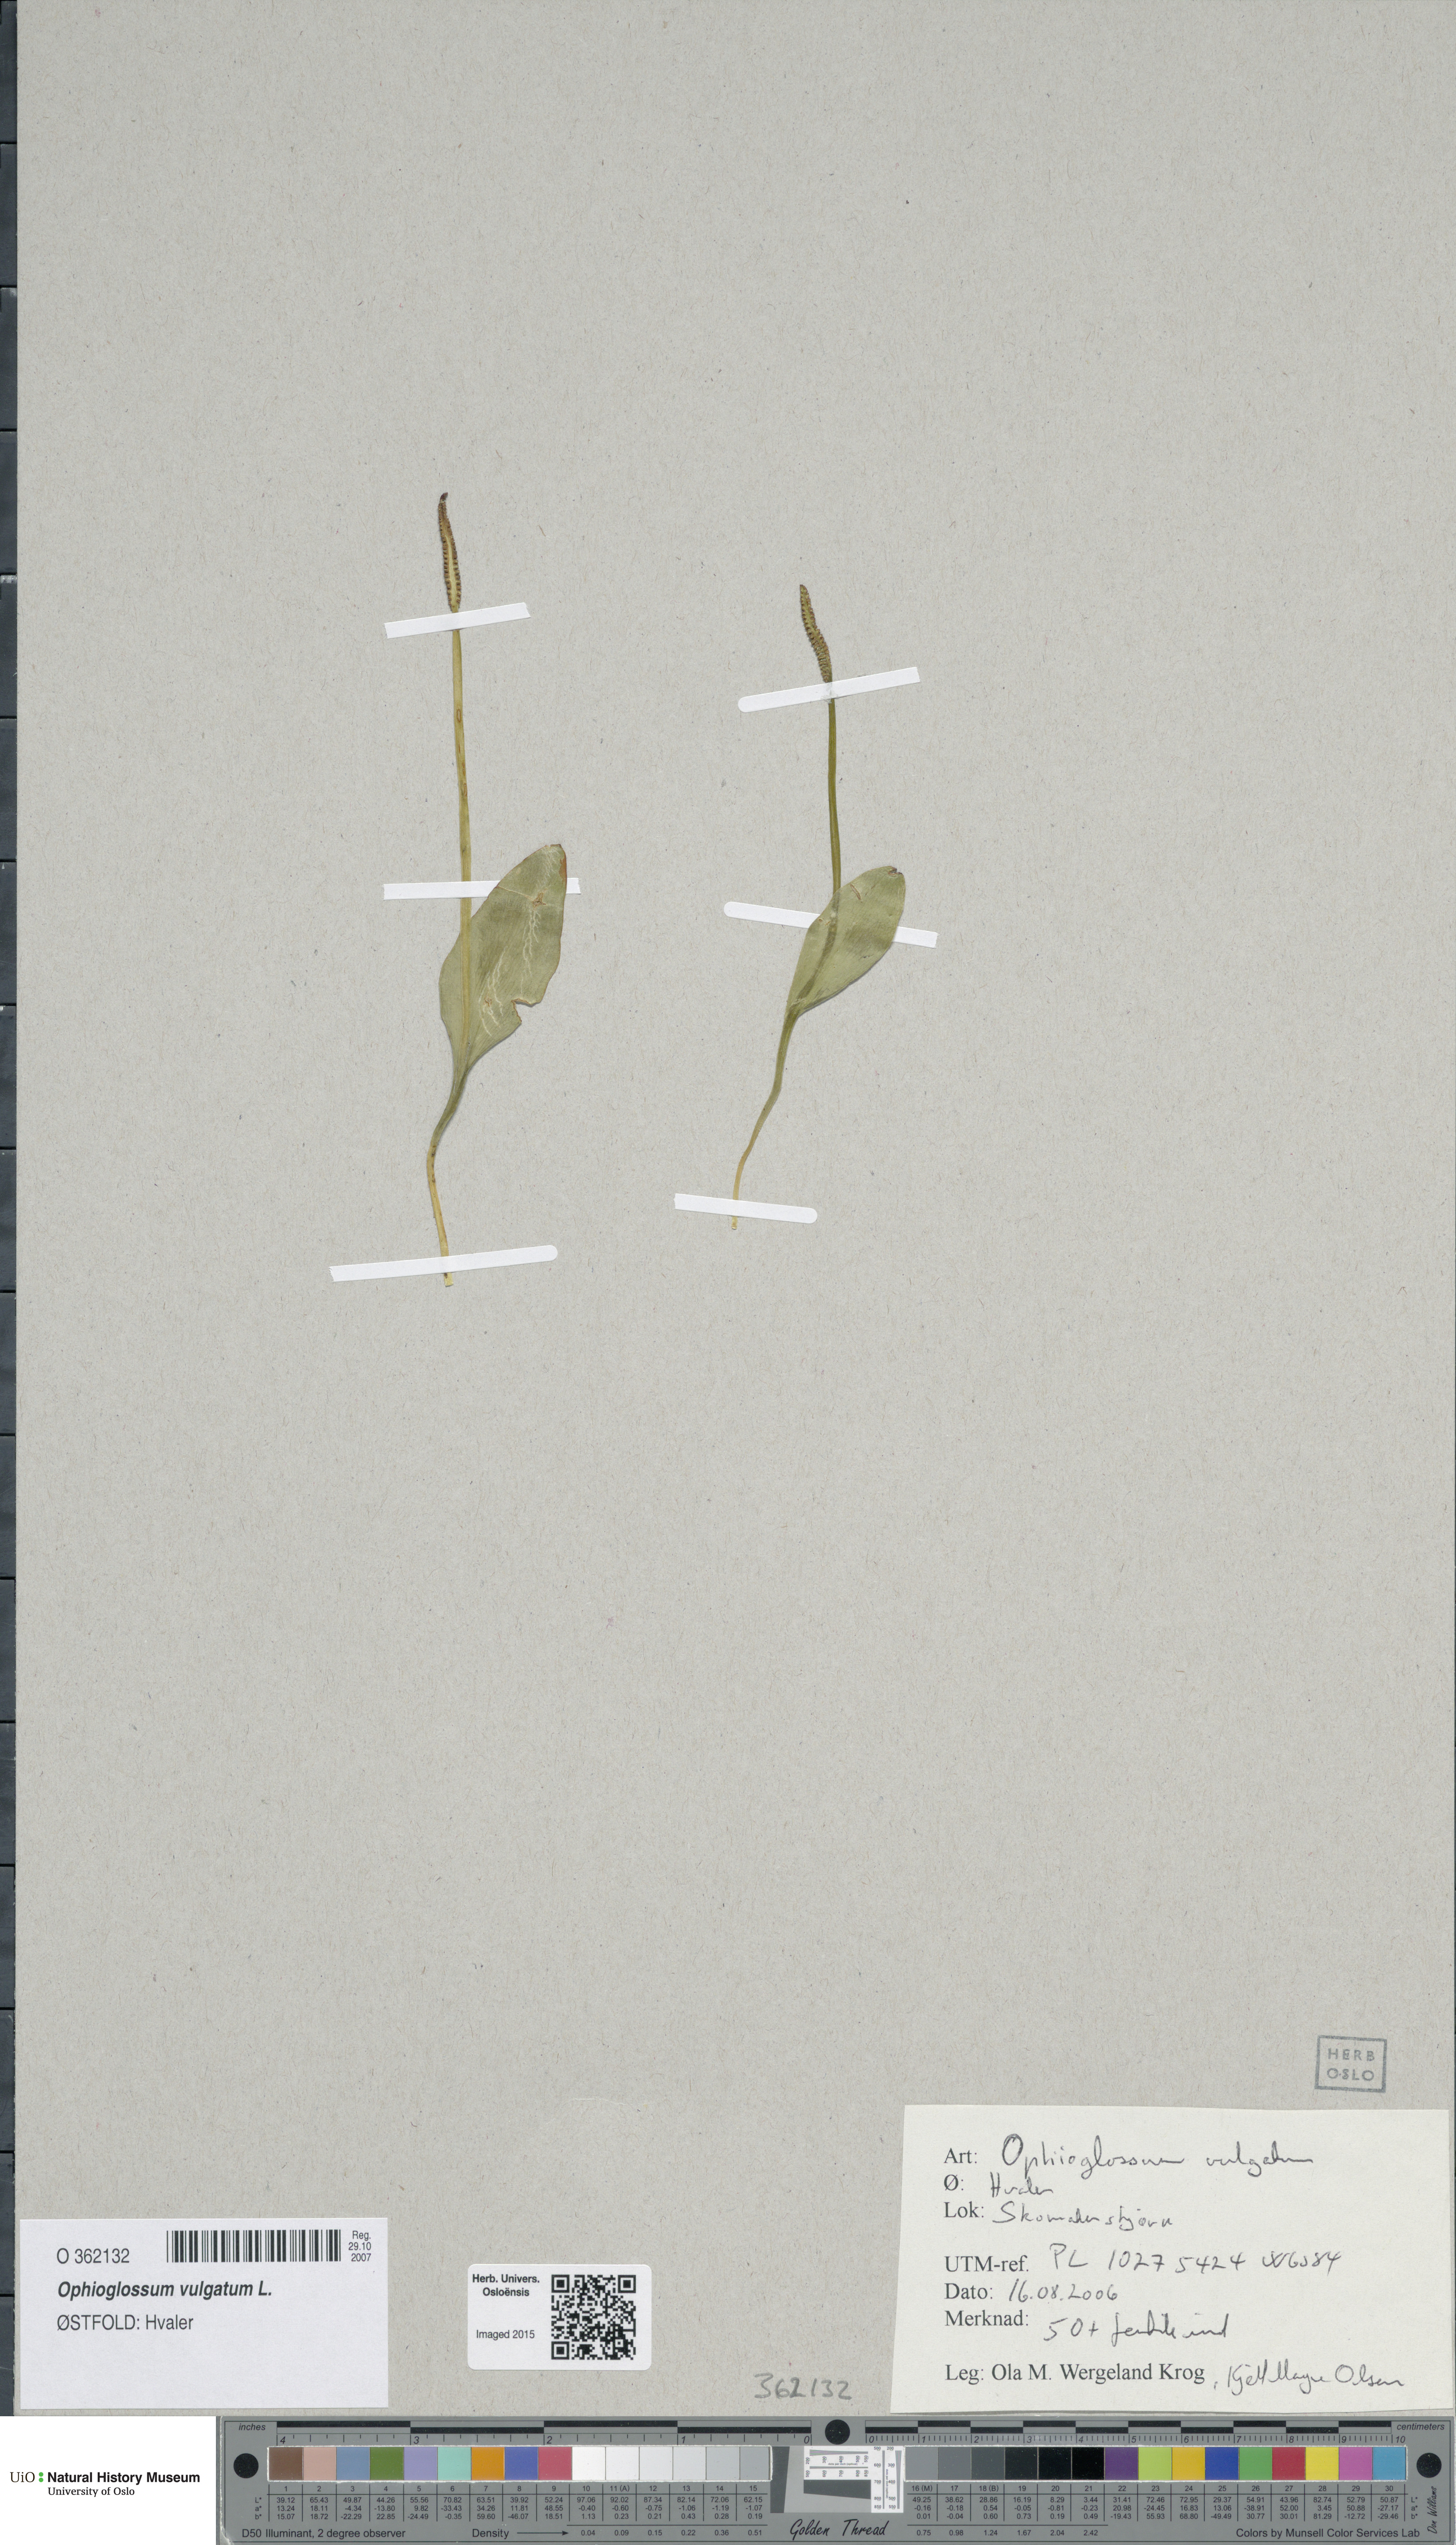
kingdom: Plantae
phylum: Tracheophyta
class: Polypodiopsida
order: Ophioglossales
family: Ophioglossaceae
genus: Ophioglossum
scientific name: Ophioglossum vulgatum
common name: Adder's-tongue
